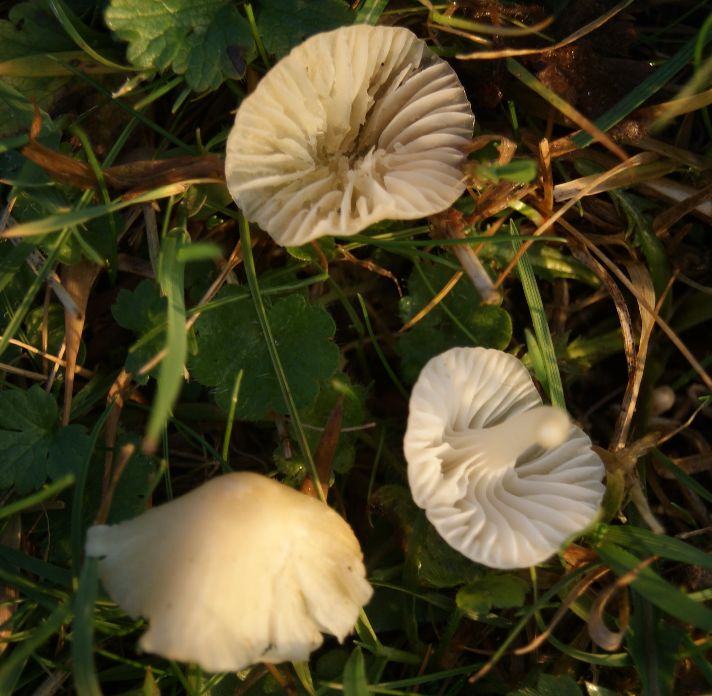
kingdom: Fungi
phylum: Basidiomycota
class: Agaricomycetes
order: Agaricales
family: Hygrophoraceae
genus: Cuphophyllus
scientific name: Cuphophyllus russocoriaceus
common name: ruslæder-vokshat
